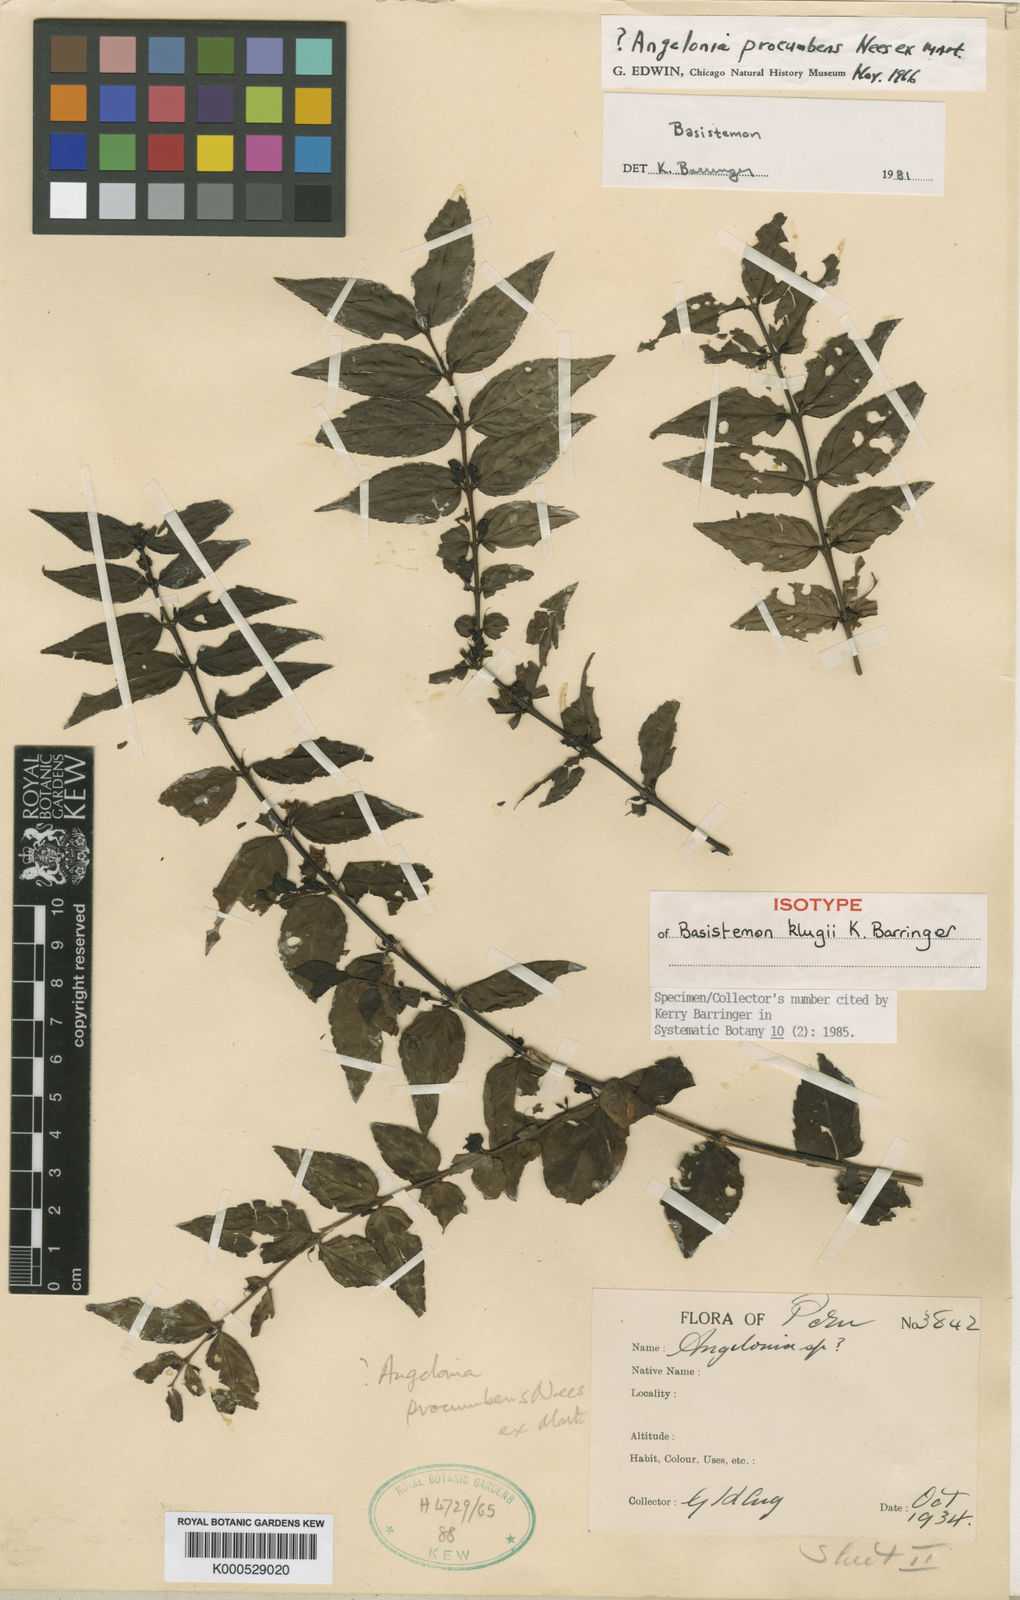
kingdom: Plantae
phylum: Tracheophyta
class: Magnoliopsida
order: Lamiales
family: Plantaginaceae
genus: Basistemon
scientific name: Basistemon klugii
